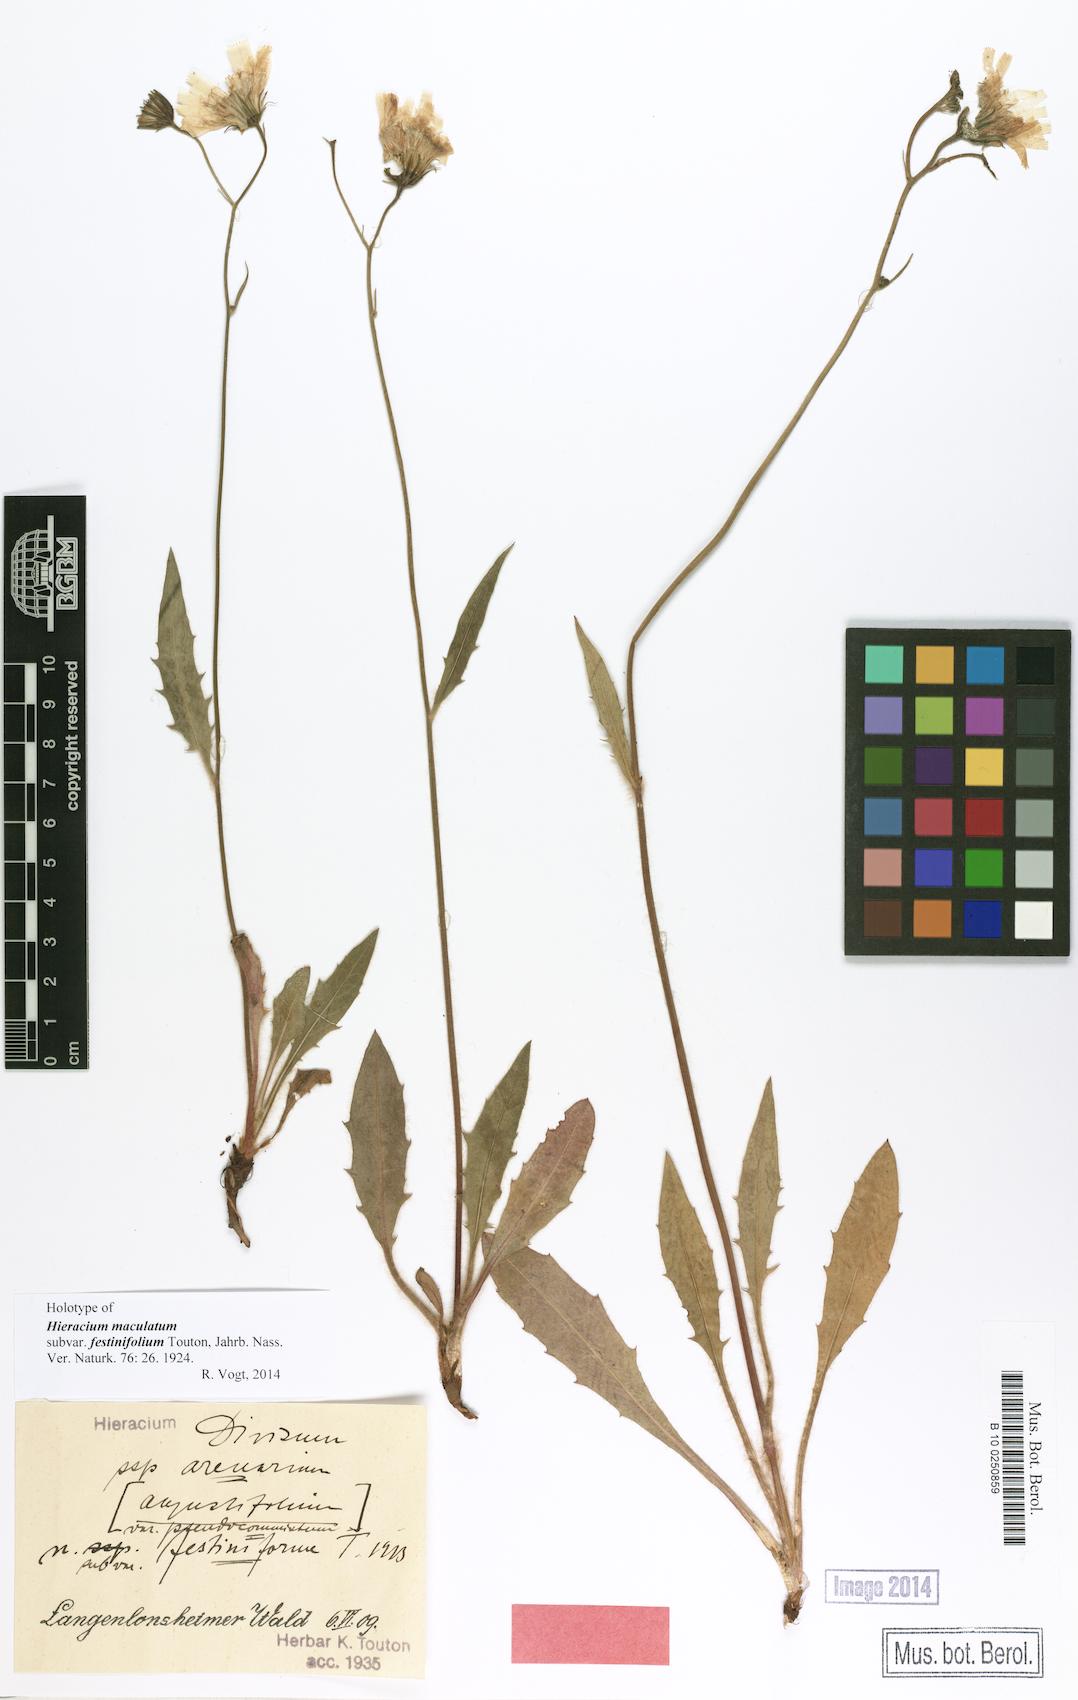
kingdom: Plantae
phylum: Tracheophyta
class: Magnoliopsida
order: Asterales
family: Asteraceae
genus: Hieracium
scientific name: Hieracium maculatum
